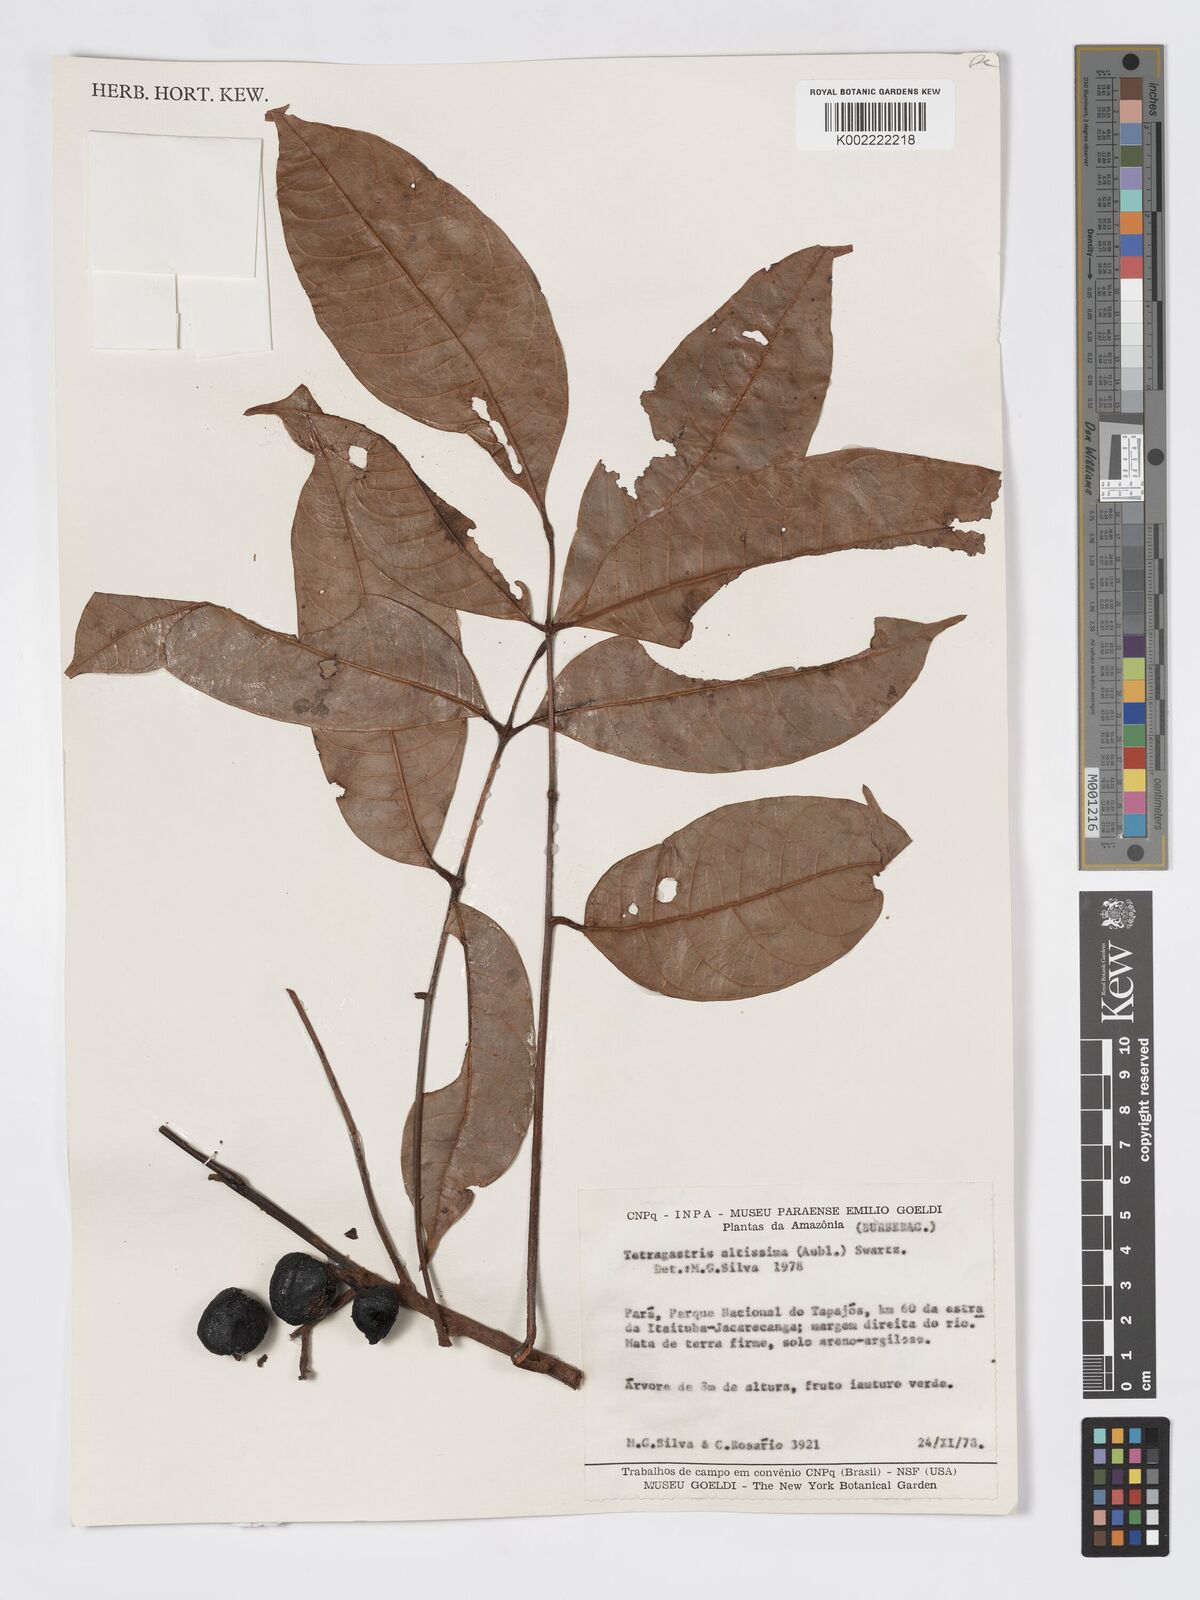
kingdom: Plantae
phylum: Tracheophyta
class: Magnoliopsida
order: Sapindales
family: Burseraceae
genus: Tetragastris
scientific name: Tetragastris altissima
